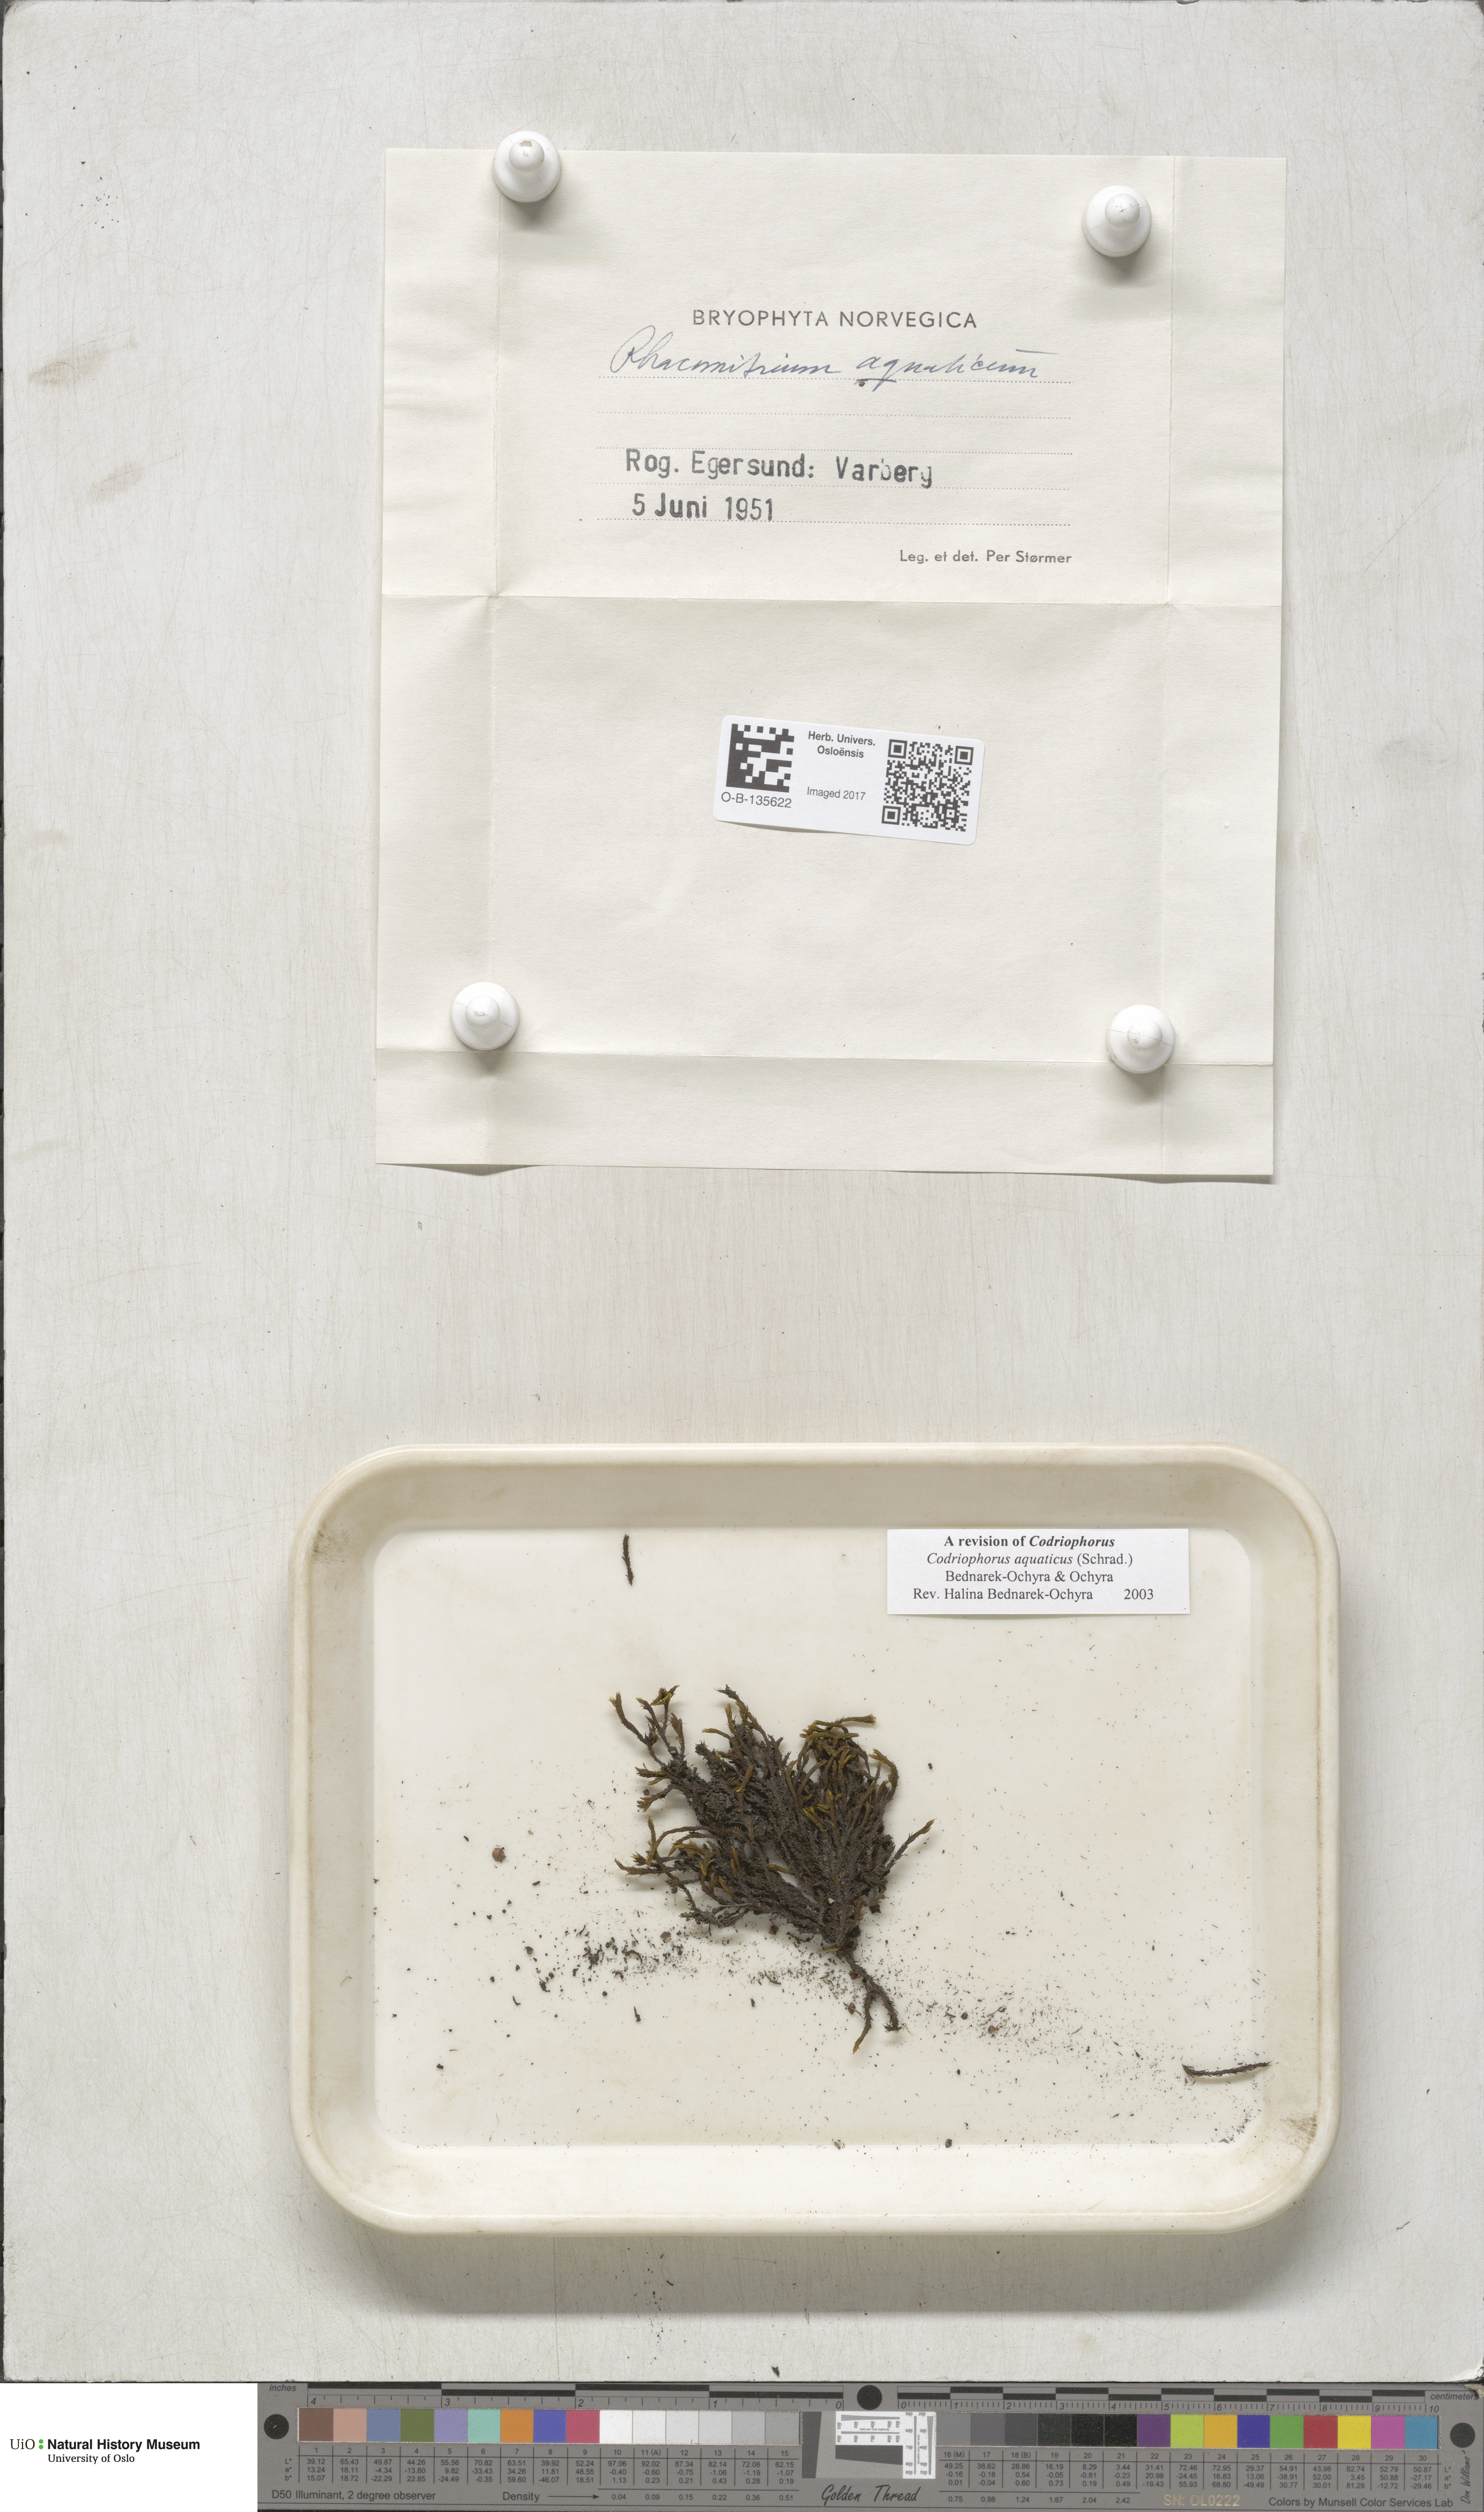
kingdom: Plantae
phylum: Bryophyta
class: Bryopsida
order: Grimmiales
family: Grimmiaceae
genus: Codriophorus
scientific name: Codriophorus aquaticus
